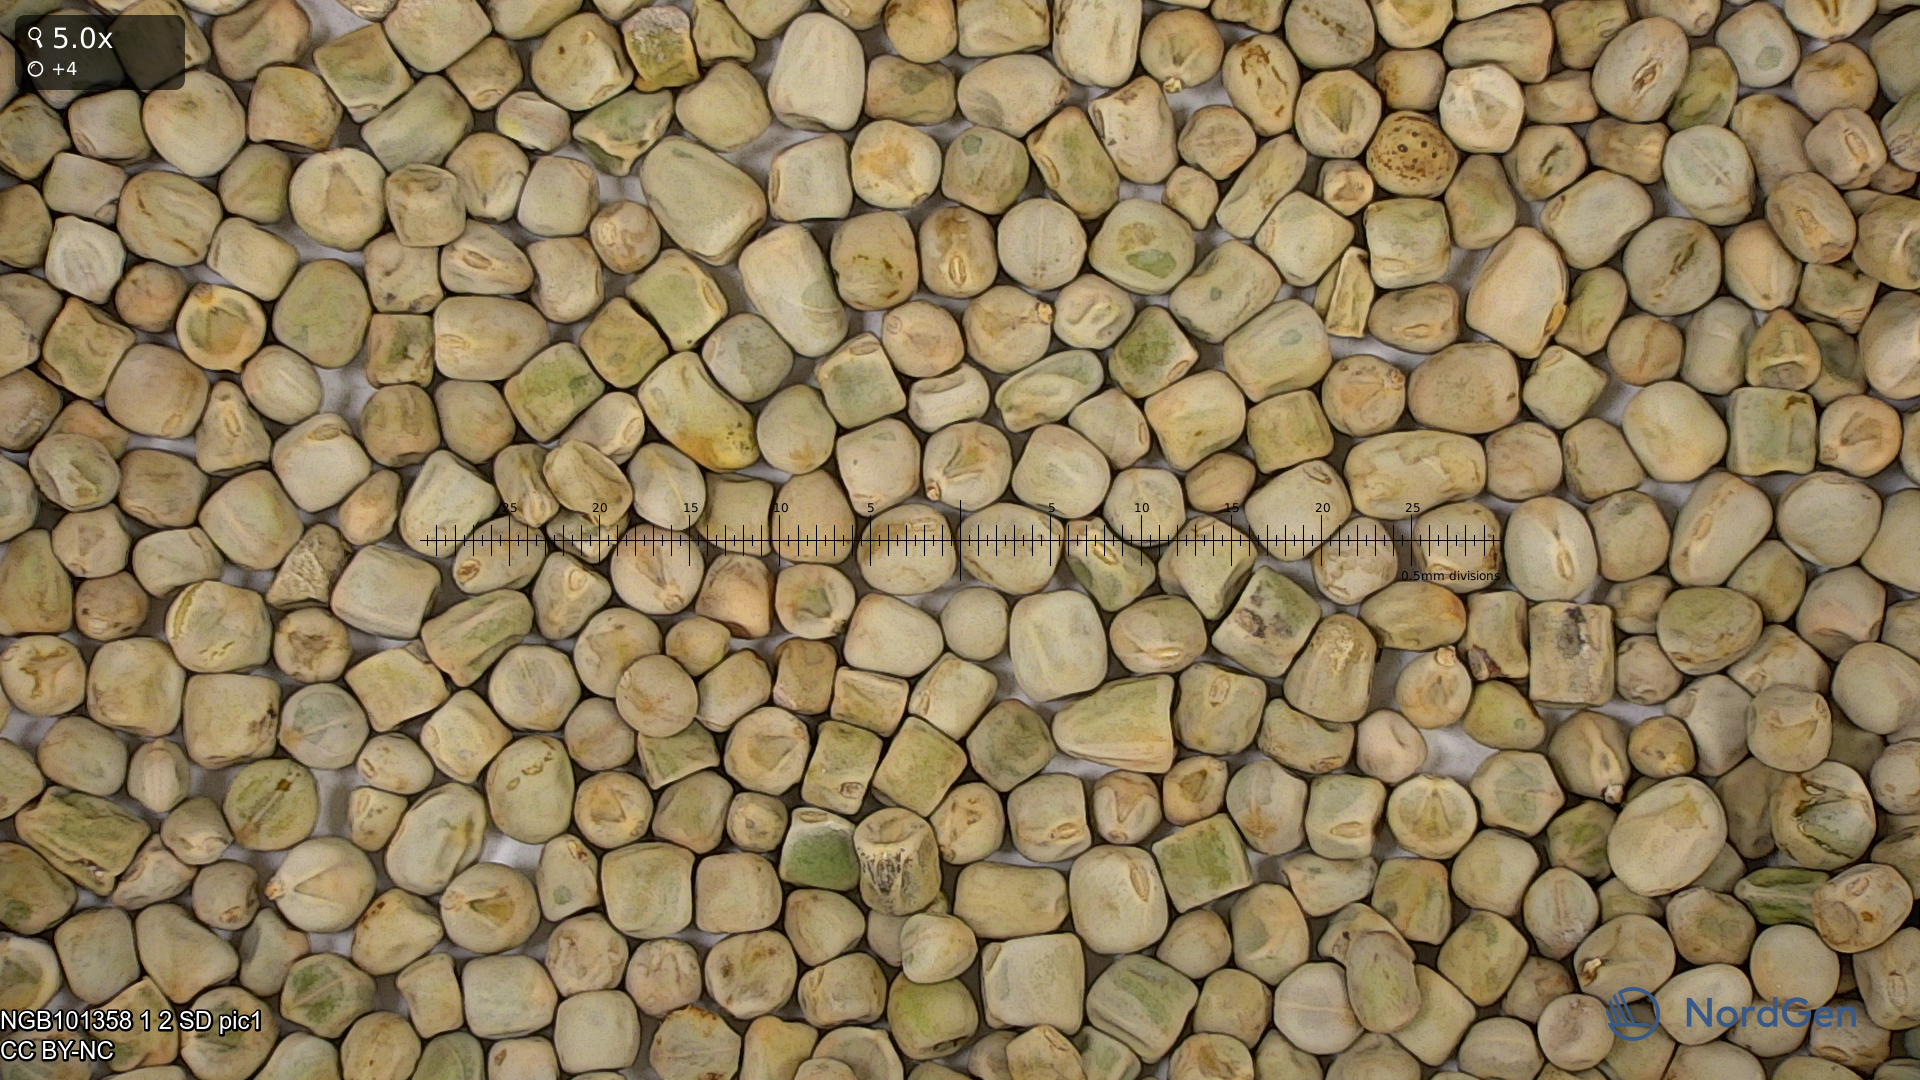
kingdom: Plantae
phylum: Tracheophyta
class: Magnoliopsida
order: Fabales
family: Fabaceae
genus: Lathyrus
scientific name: Lathyrus oleraceus
